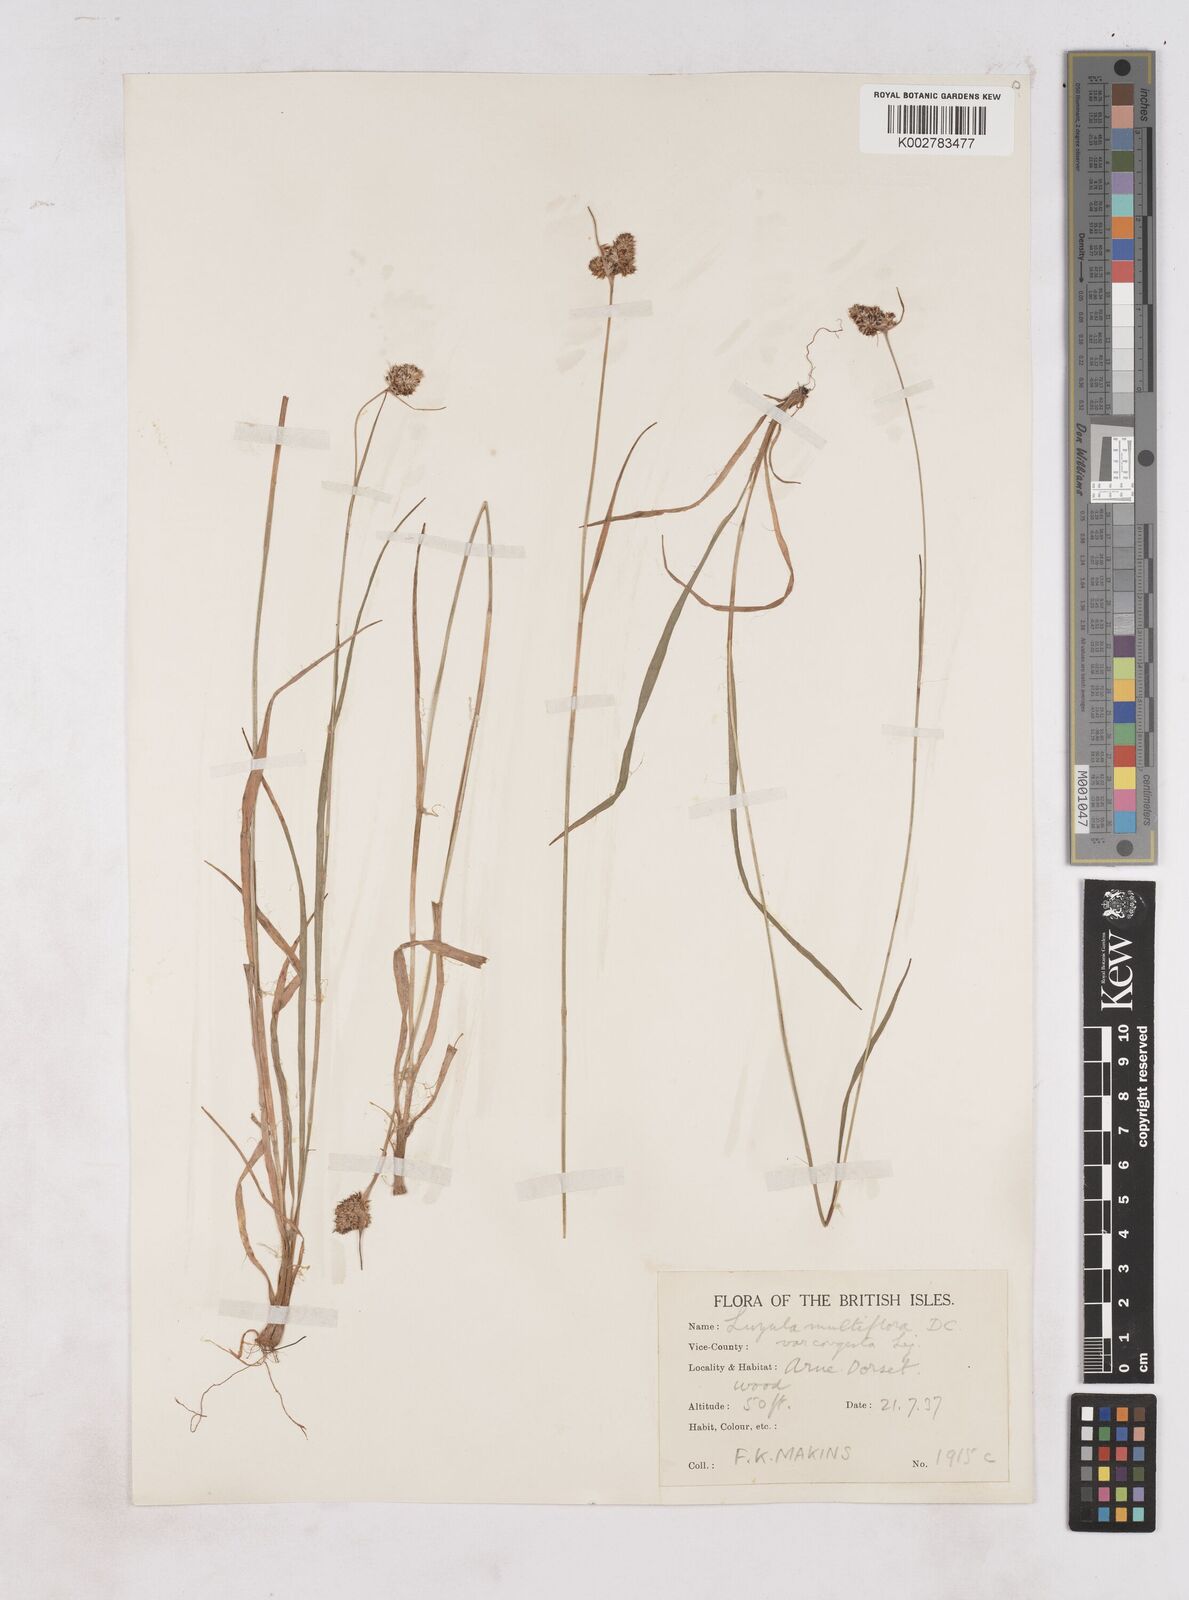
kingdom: Plantae
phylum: Tracheophyta
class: Liliopsida
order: Poales
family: Juncaceae
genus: Luzula
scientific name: Luzula campestris
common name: Field wood-rush
